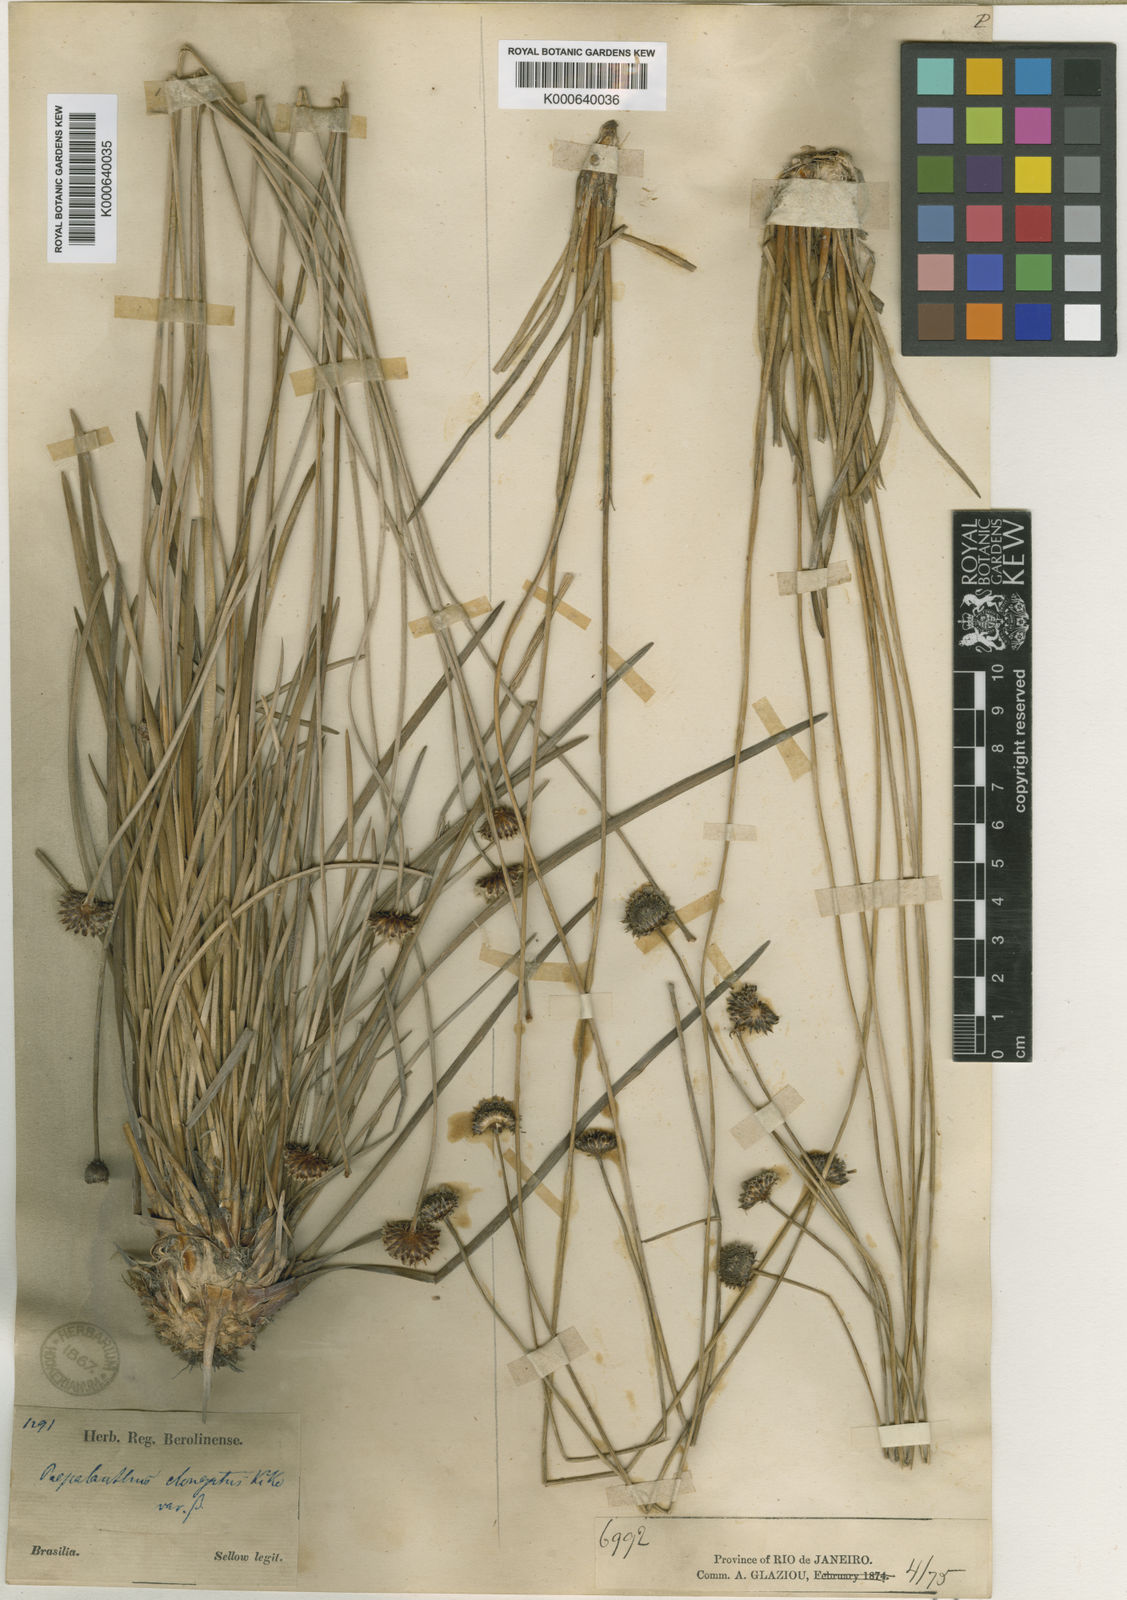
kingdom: Plantae
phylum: Tracheophyta
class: Liliopsida
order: Poales
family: Eriocaulaceae
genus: Paepalanthus
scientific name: Paepalanthus
